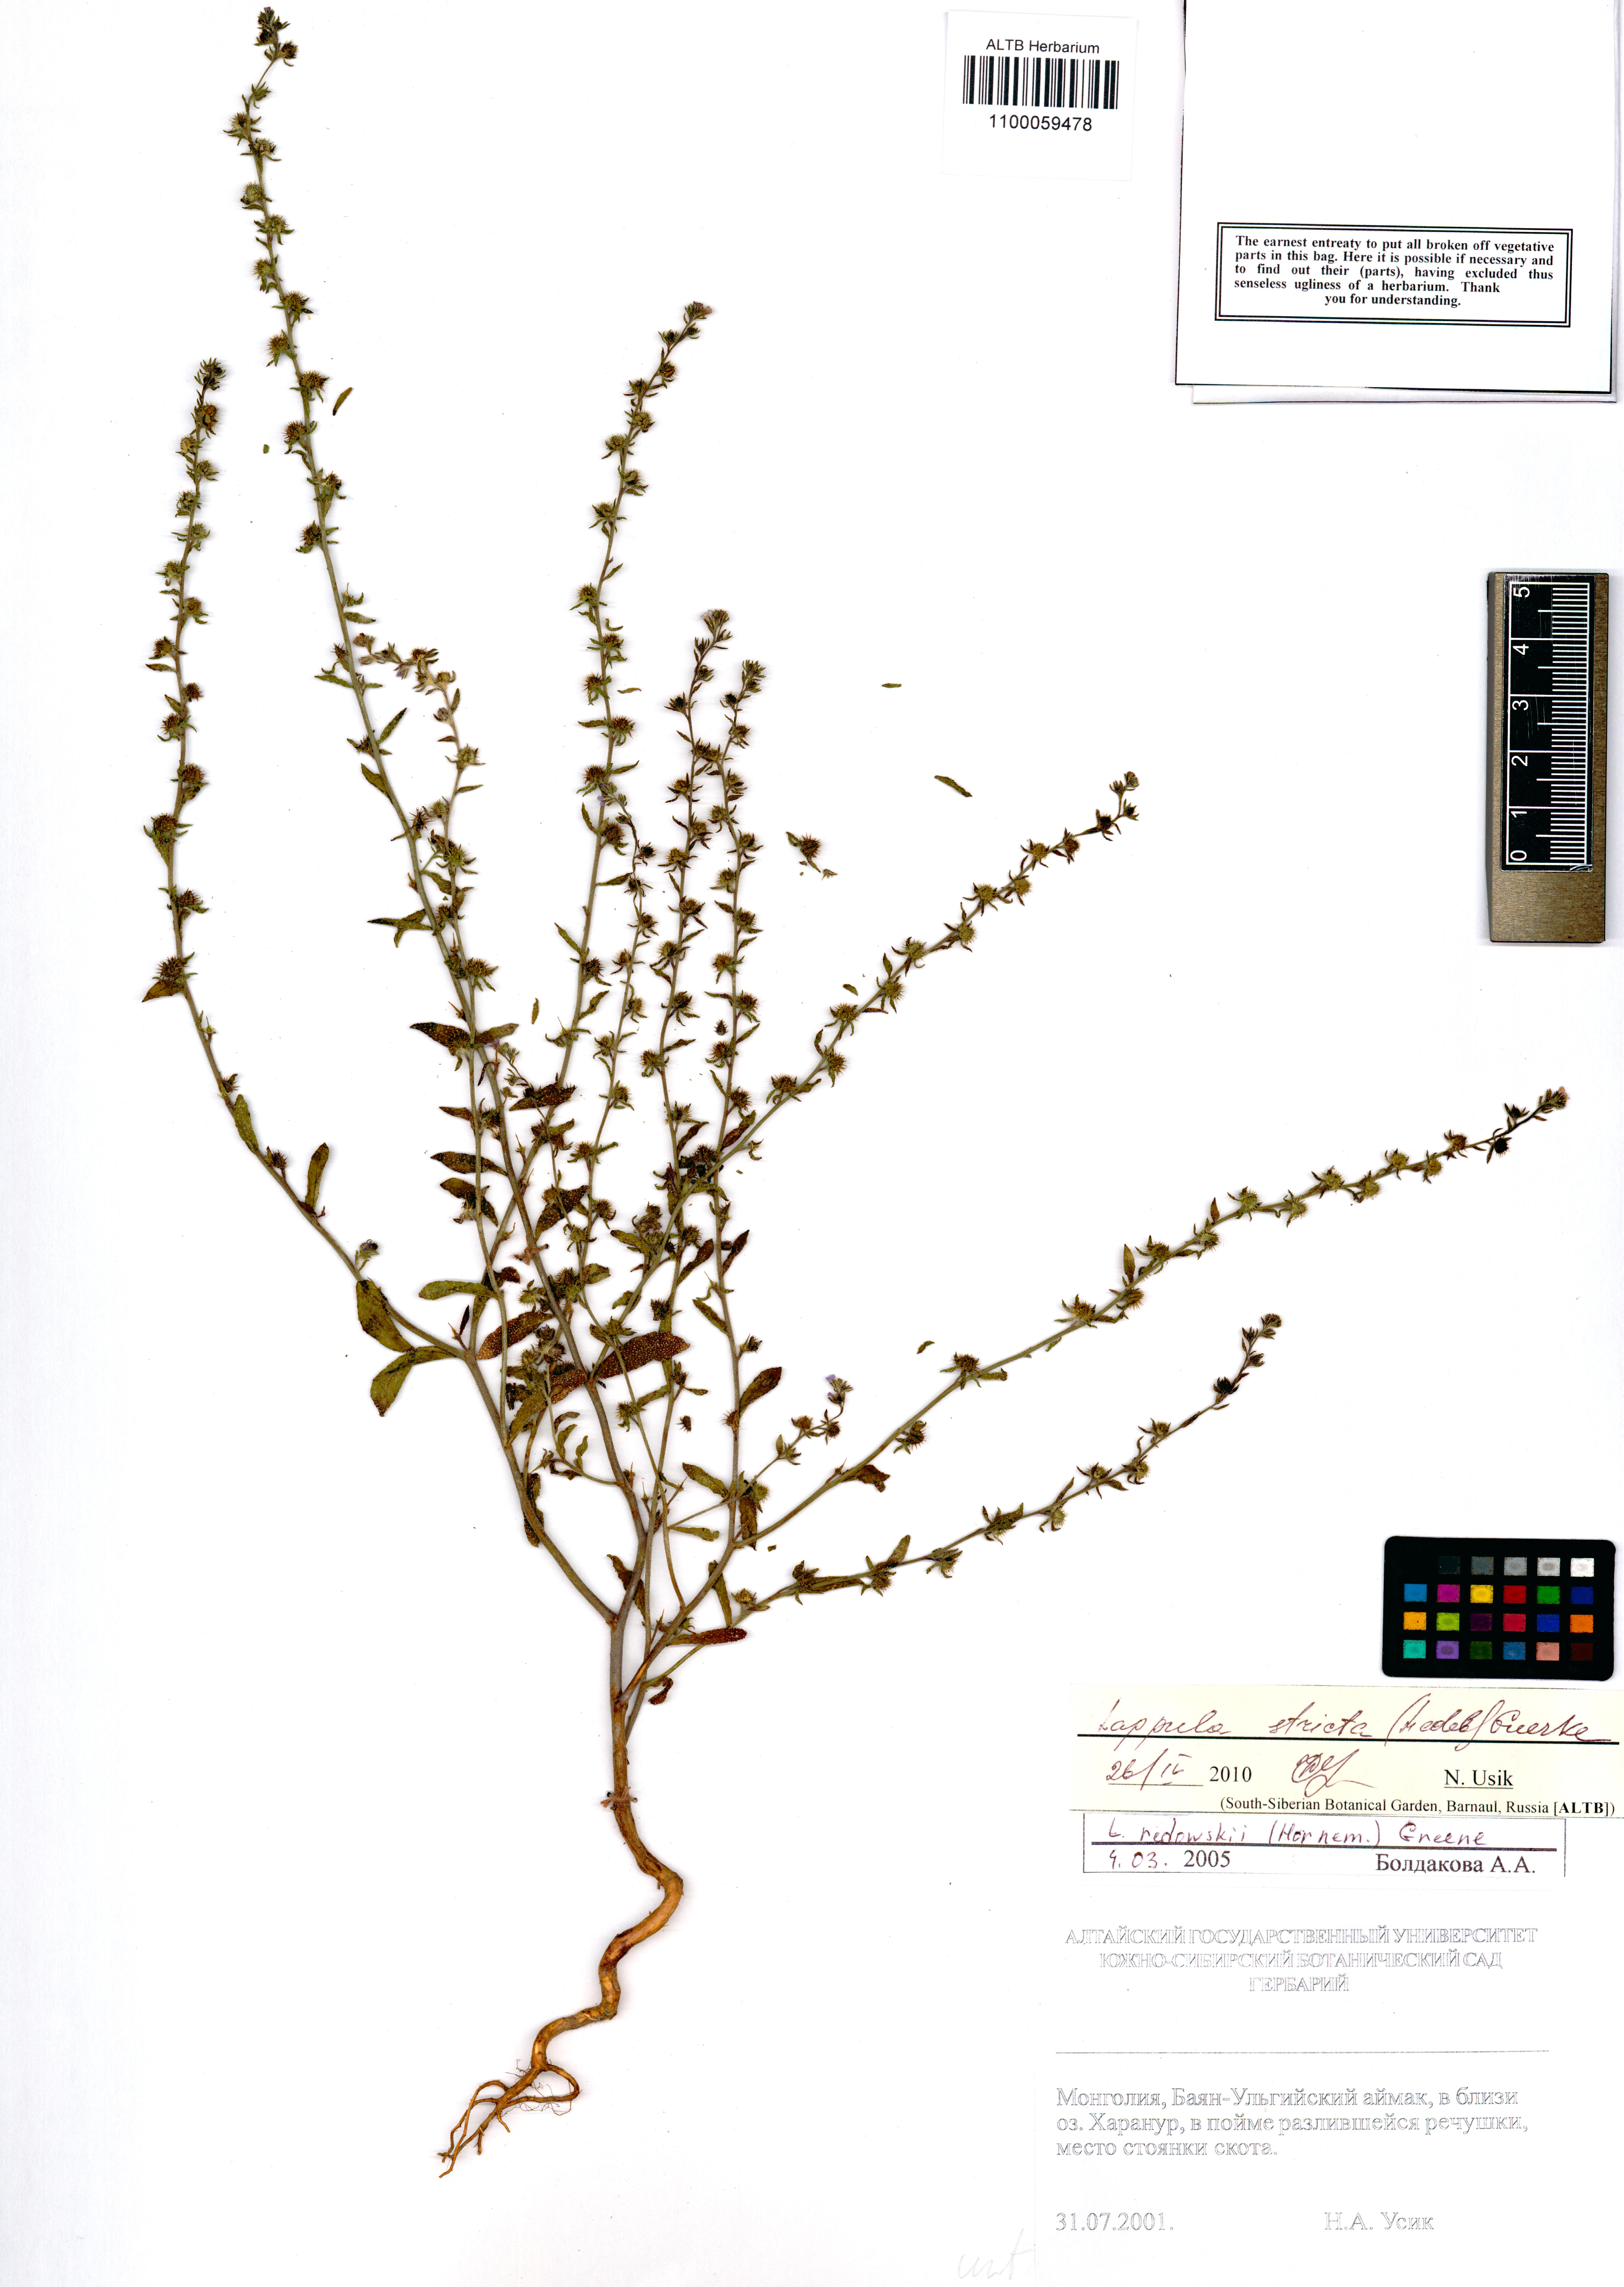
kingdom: Plantae
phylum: Tracheophyta
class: Magnoliopsida
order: Boraginales
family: Boraginaceae
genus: Lappula
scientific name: Lappula stricta
